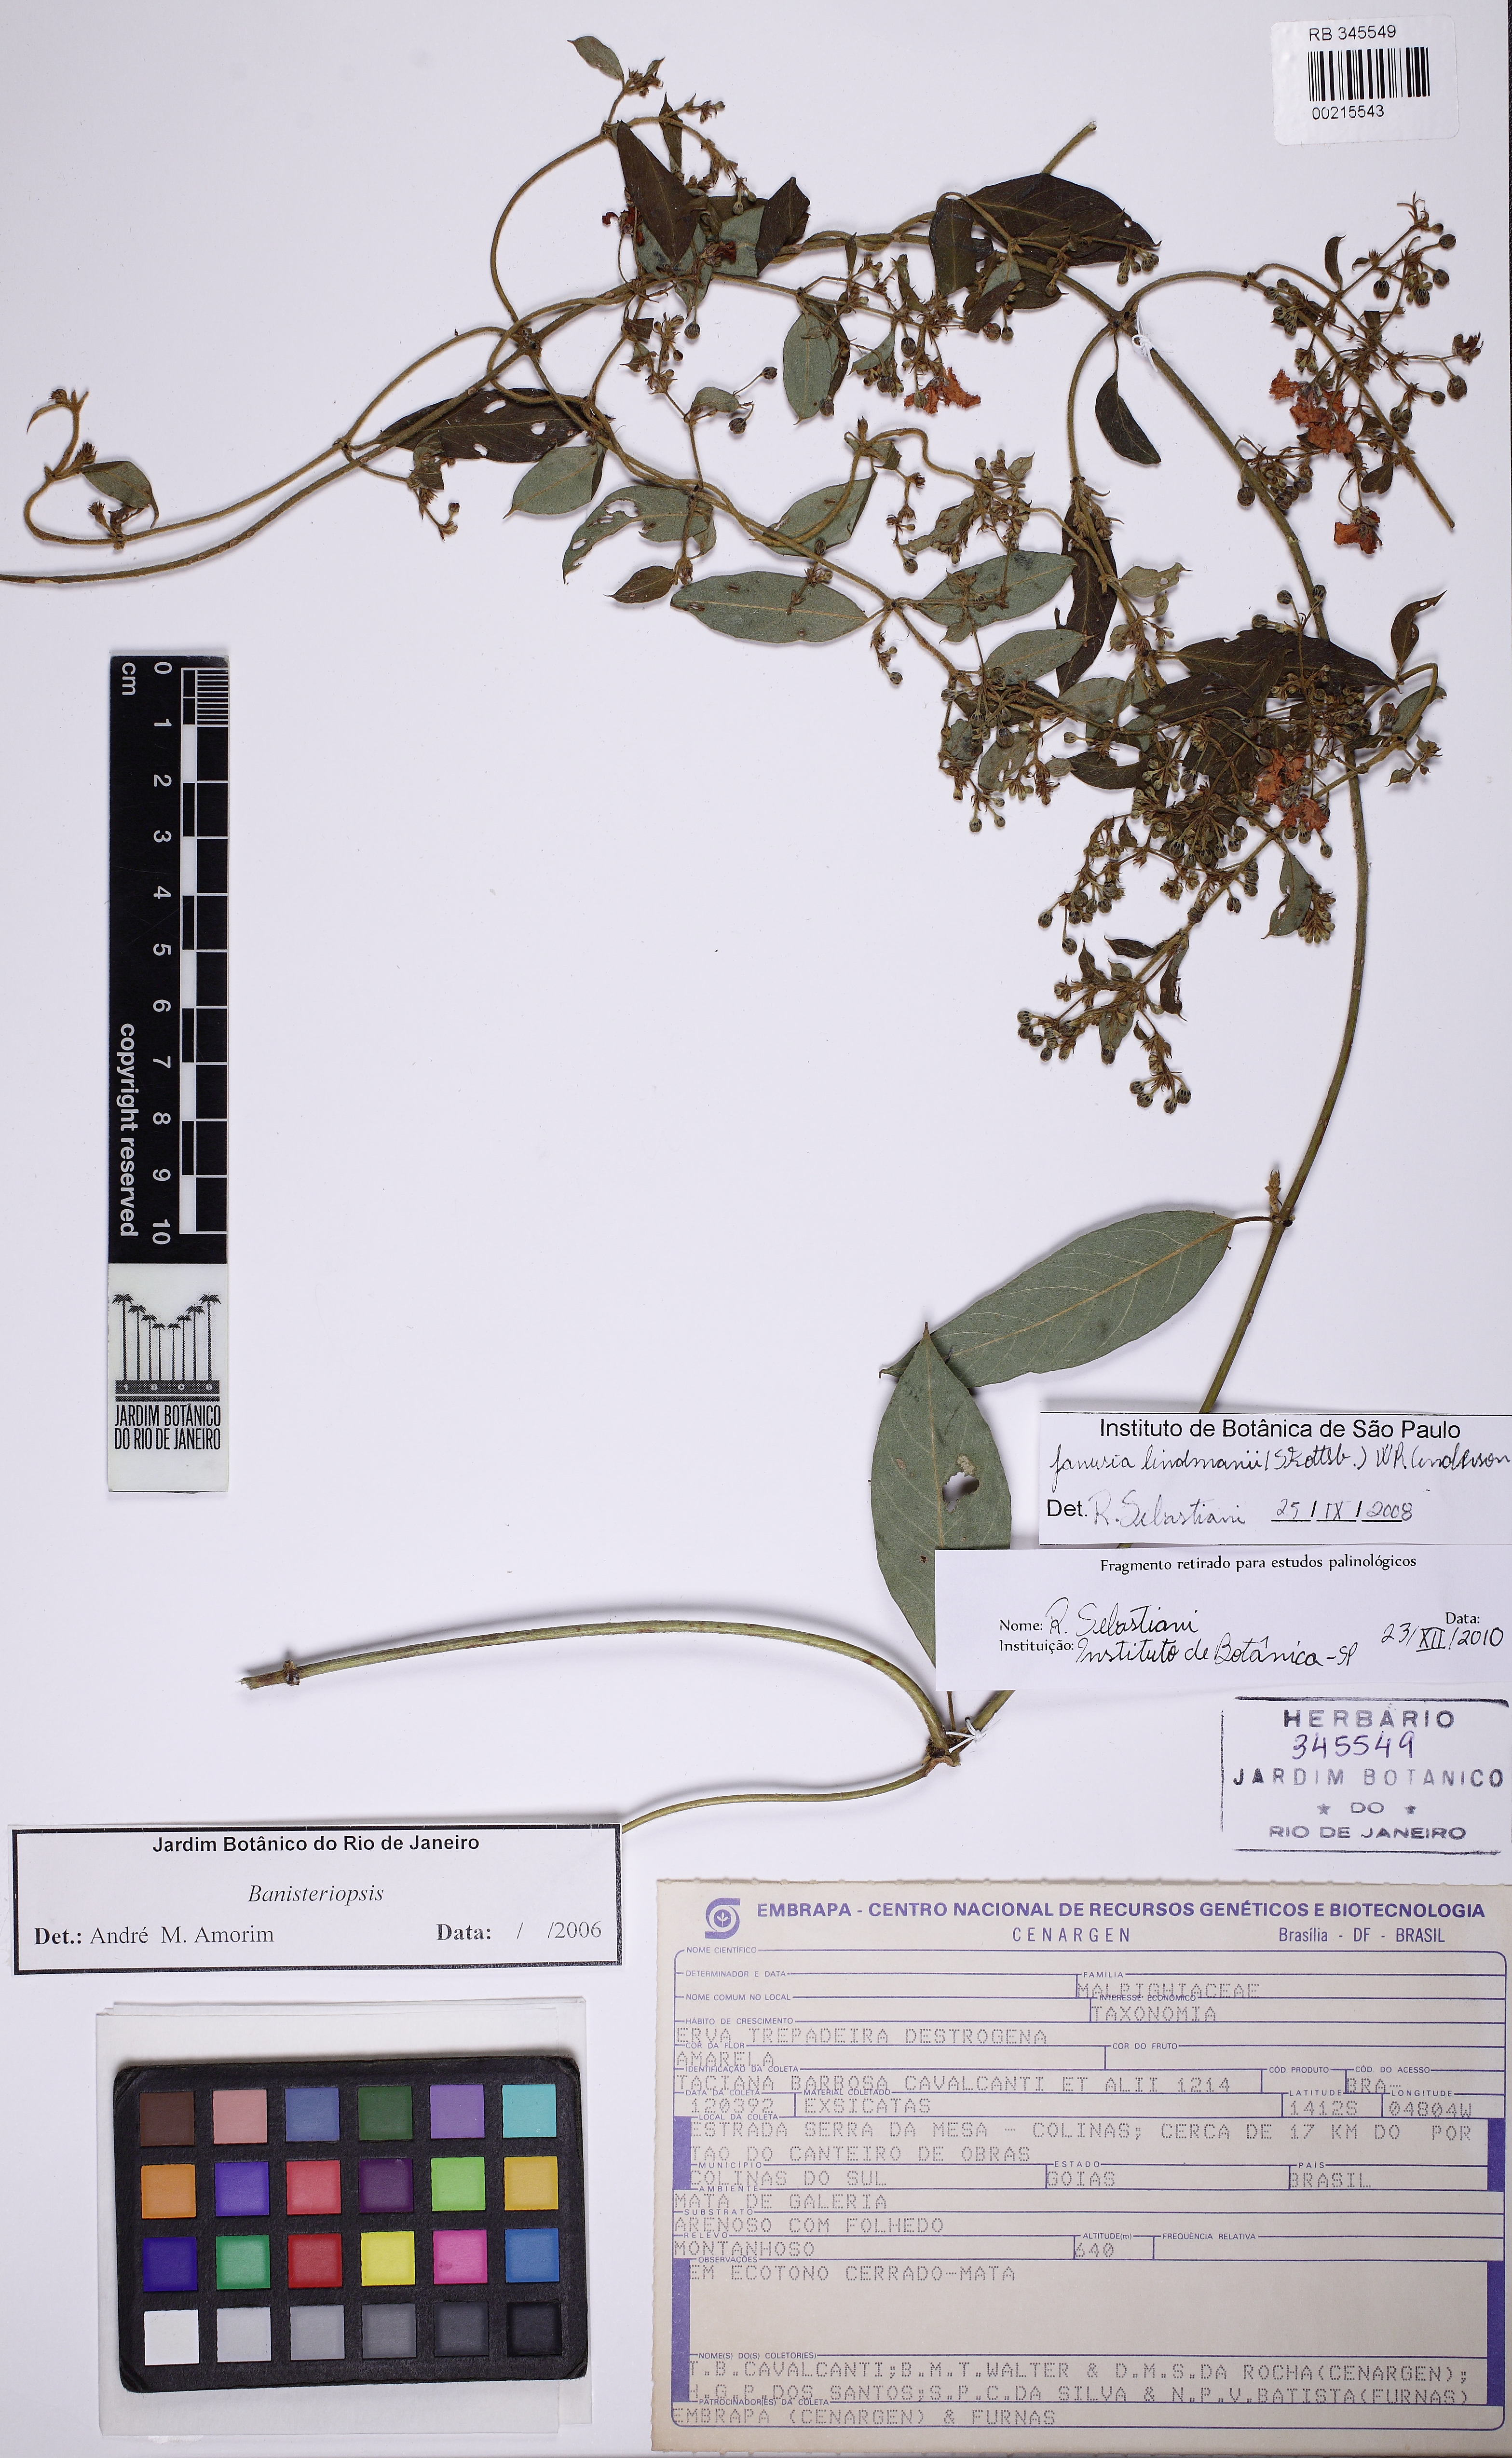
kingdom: Plantae
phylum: Tracheophyta
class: Magnoliopsida
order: Malpighiales
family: Malpighiaceae
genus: Janusia
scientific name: Janusia lindmanii
